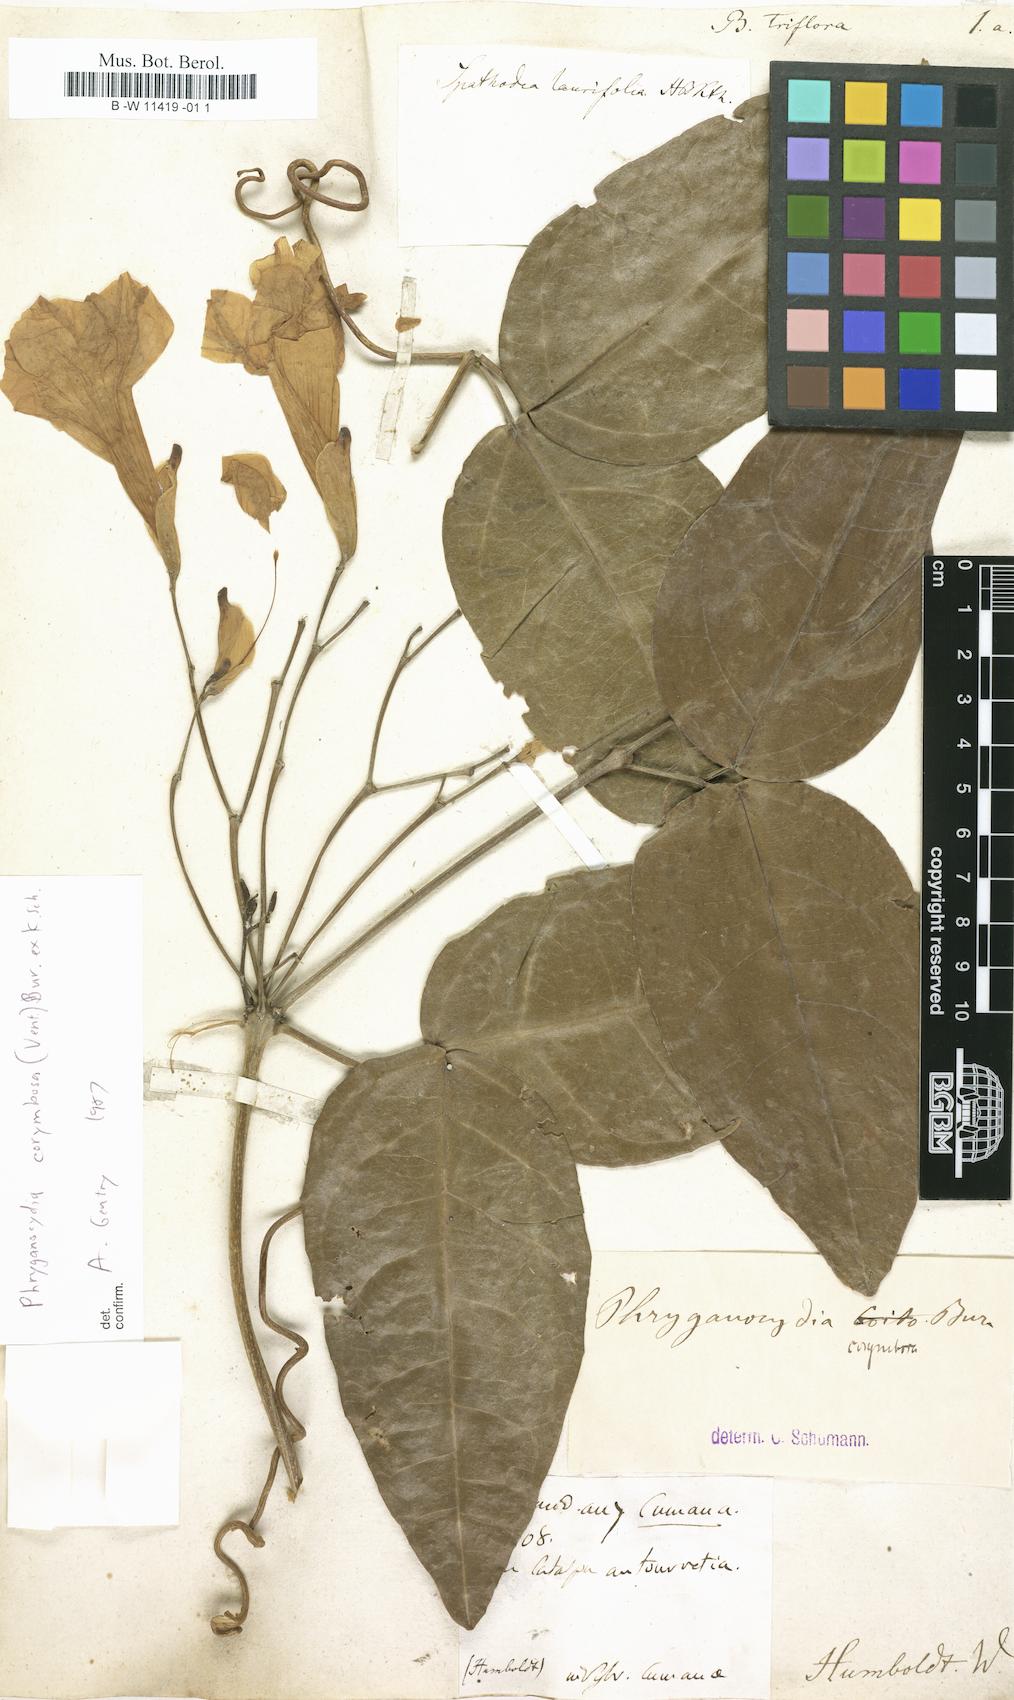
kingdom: Plantae
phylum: Tracheophyta
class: Magnoliopsida
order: Lamiales
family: Bignoniaceae
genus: Bignonia
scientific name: Bignonia triflora
